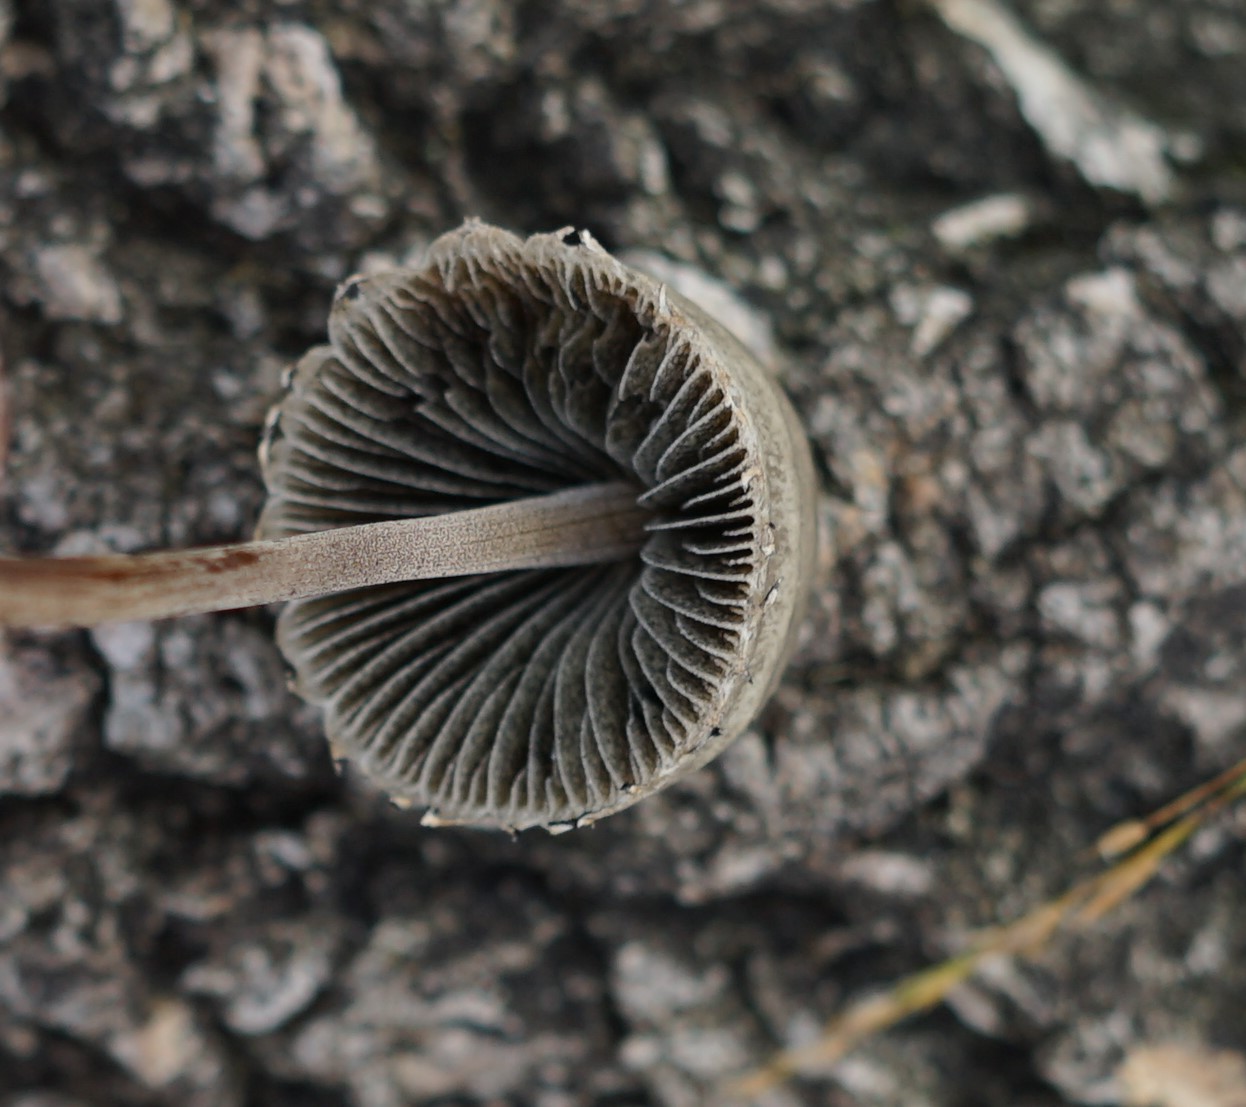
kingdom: Fungi
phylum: Basidiomycota
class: Agaricomycetes
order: Agaricales
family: Bolbitiaceae
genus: Panaeolus
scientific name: Panaeolus papilionaceus
